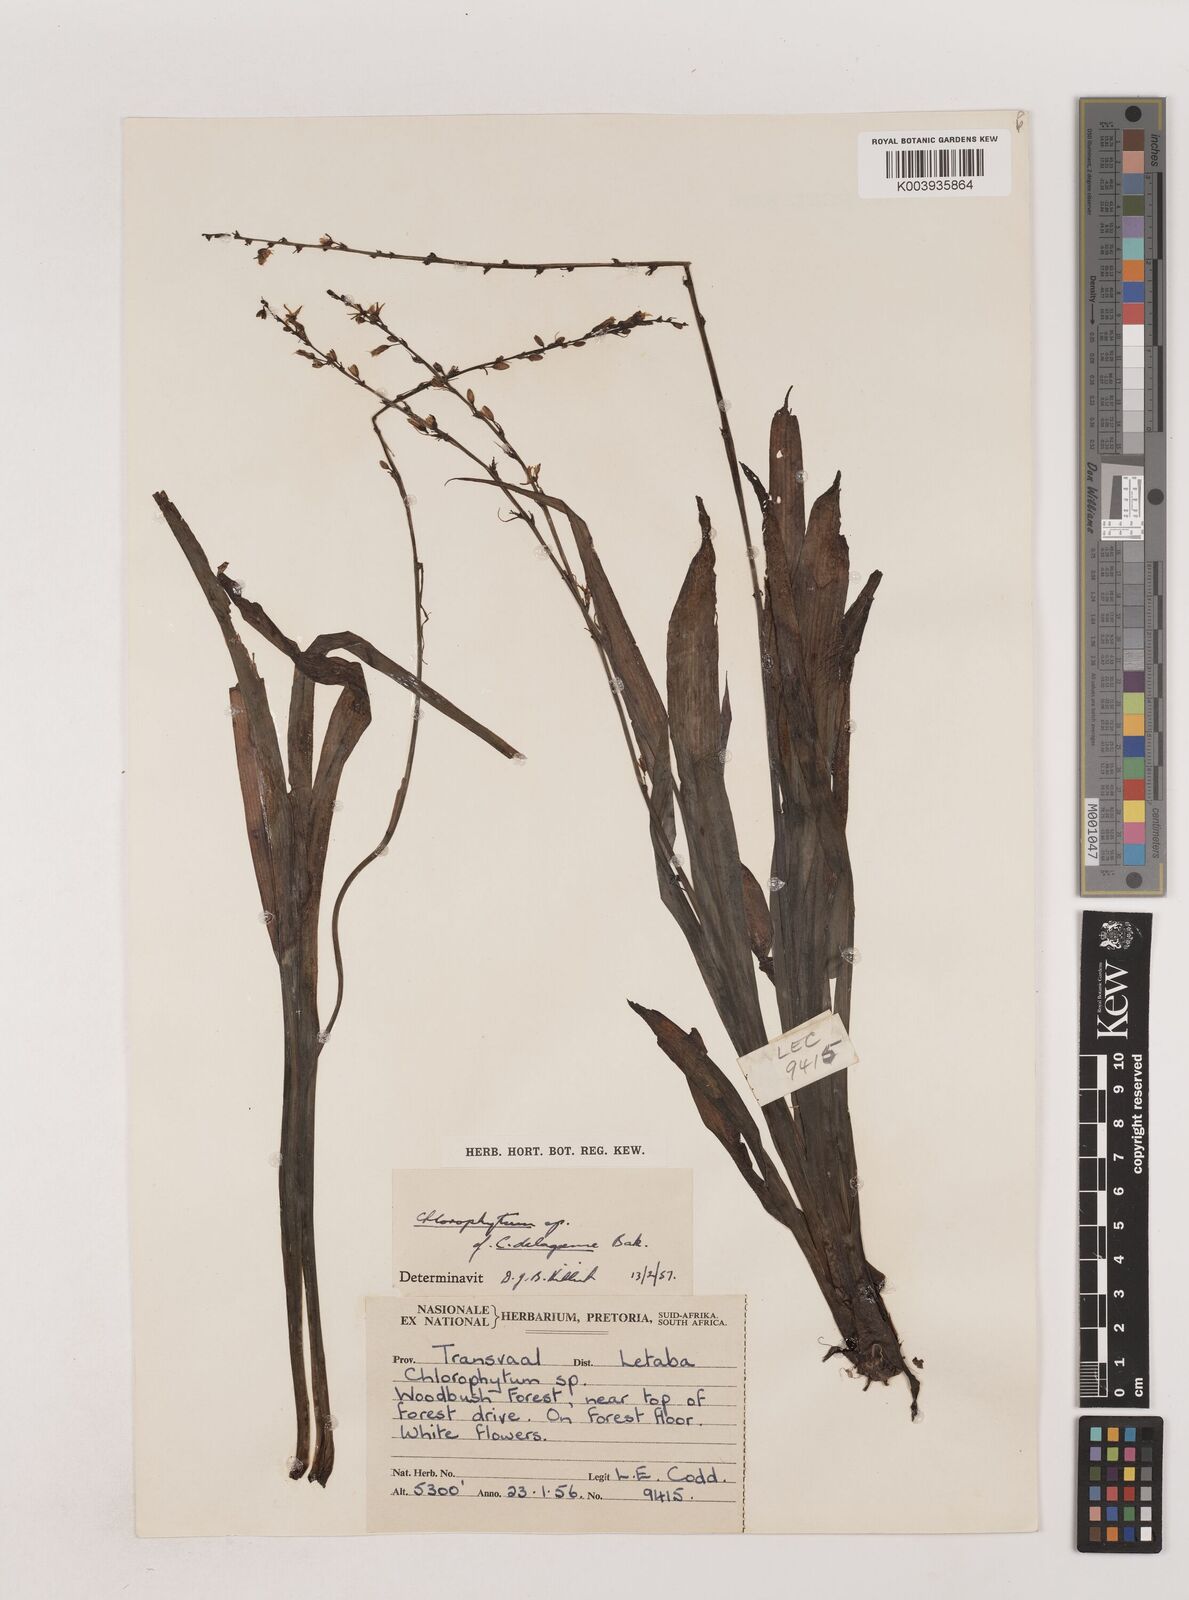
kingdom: Plantae
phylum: Tracheophyta
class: Liliopsida
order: Asparagales
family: Asparagaceae
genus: Chlorophytum
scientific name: Chlorophytum comosum
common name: Spider plant
